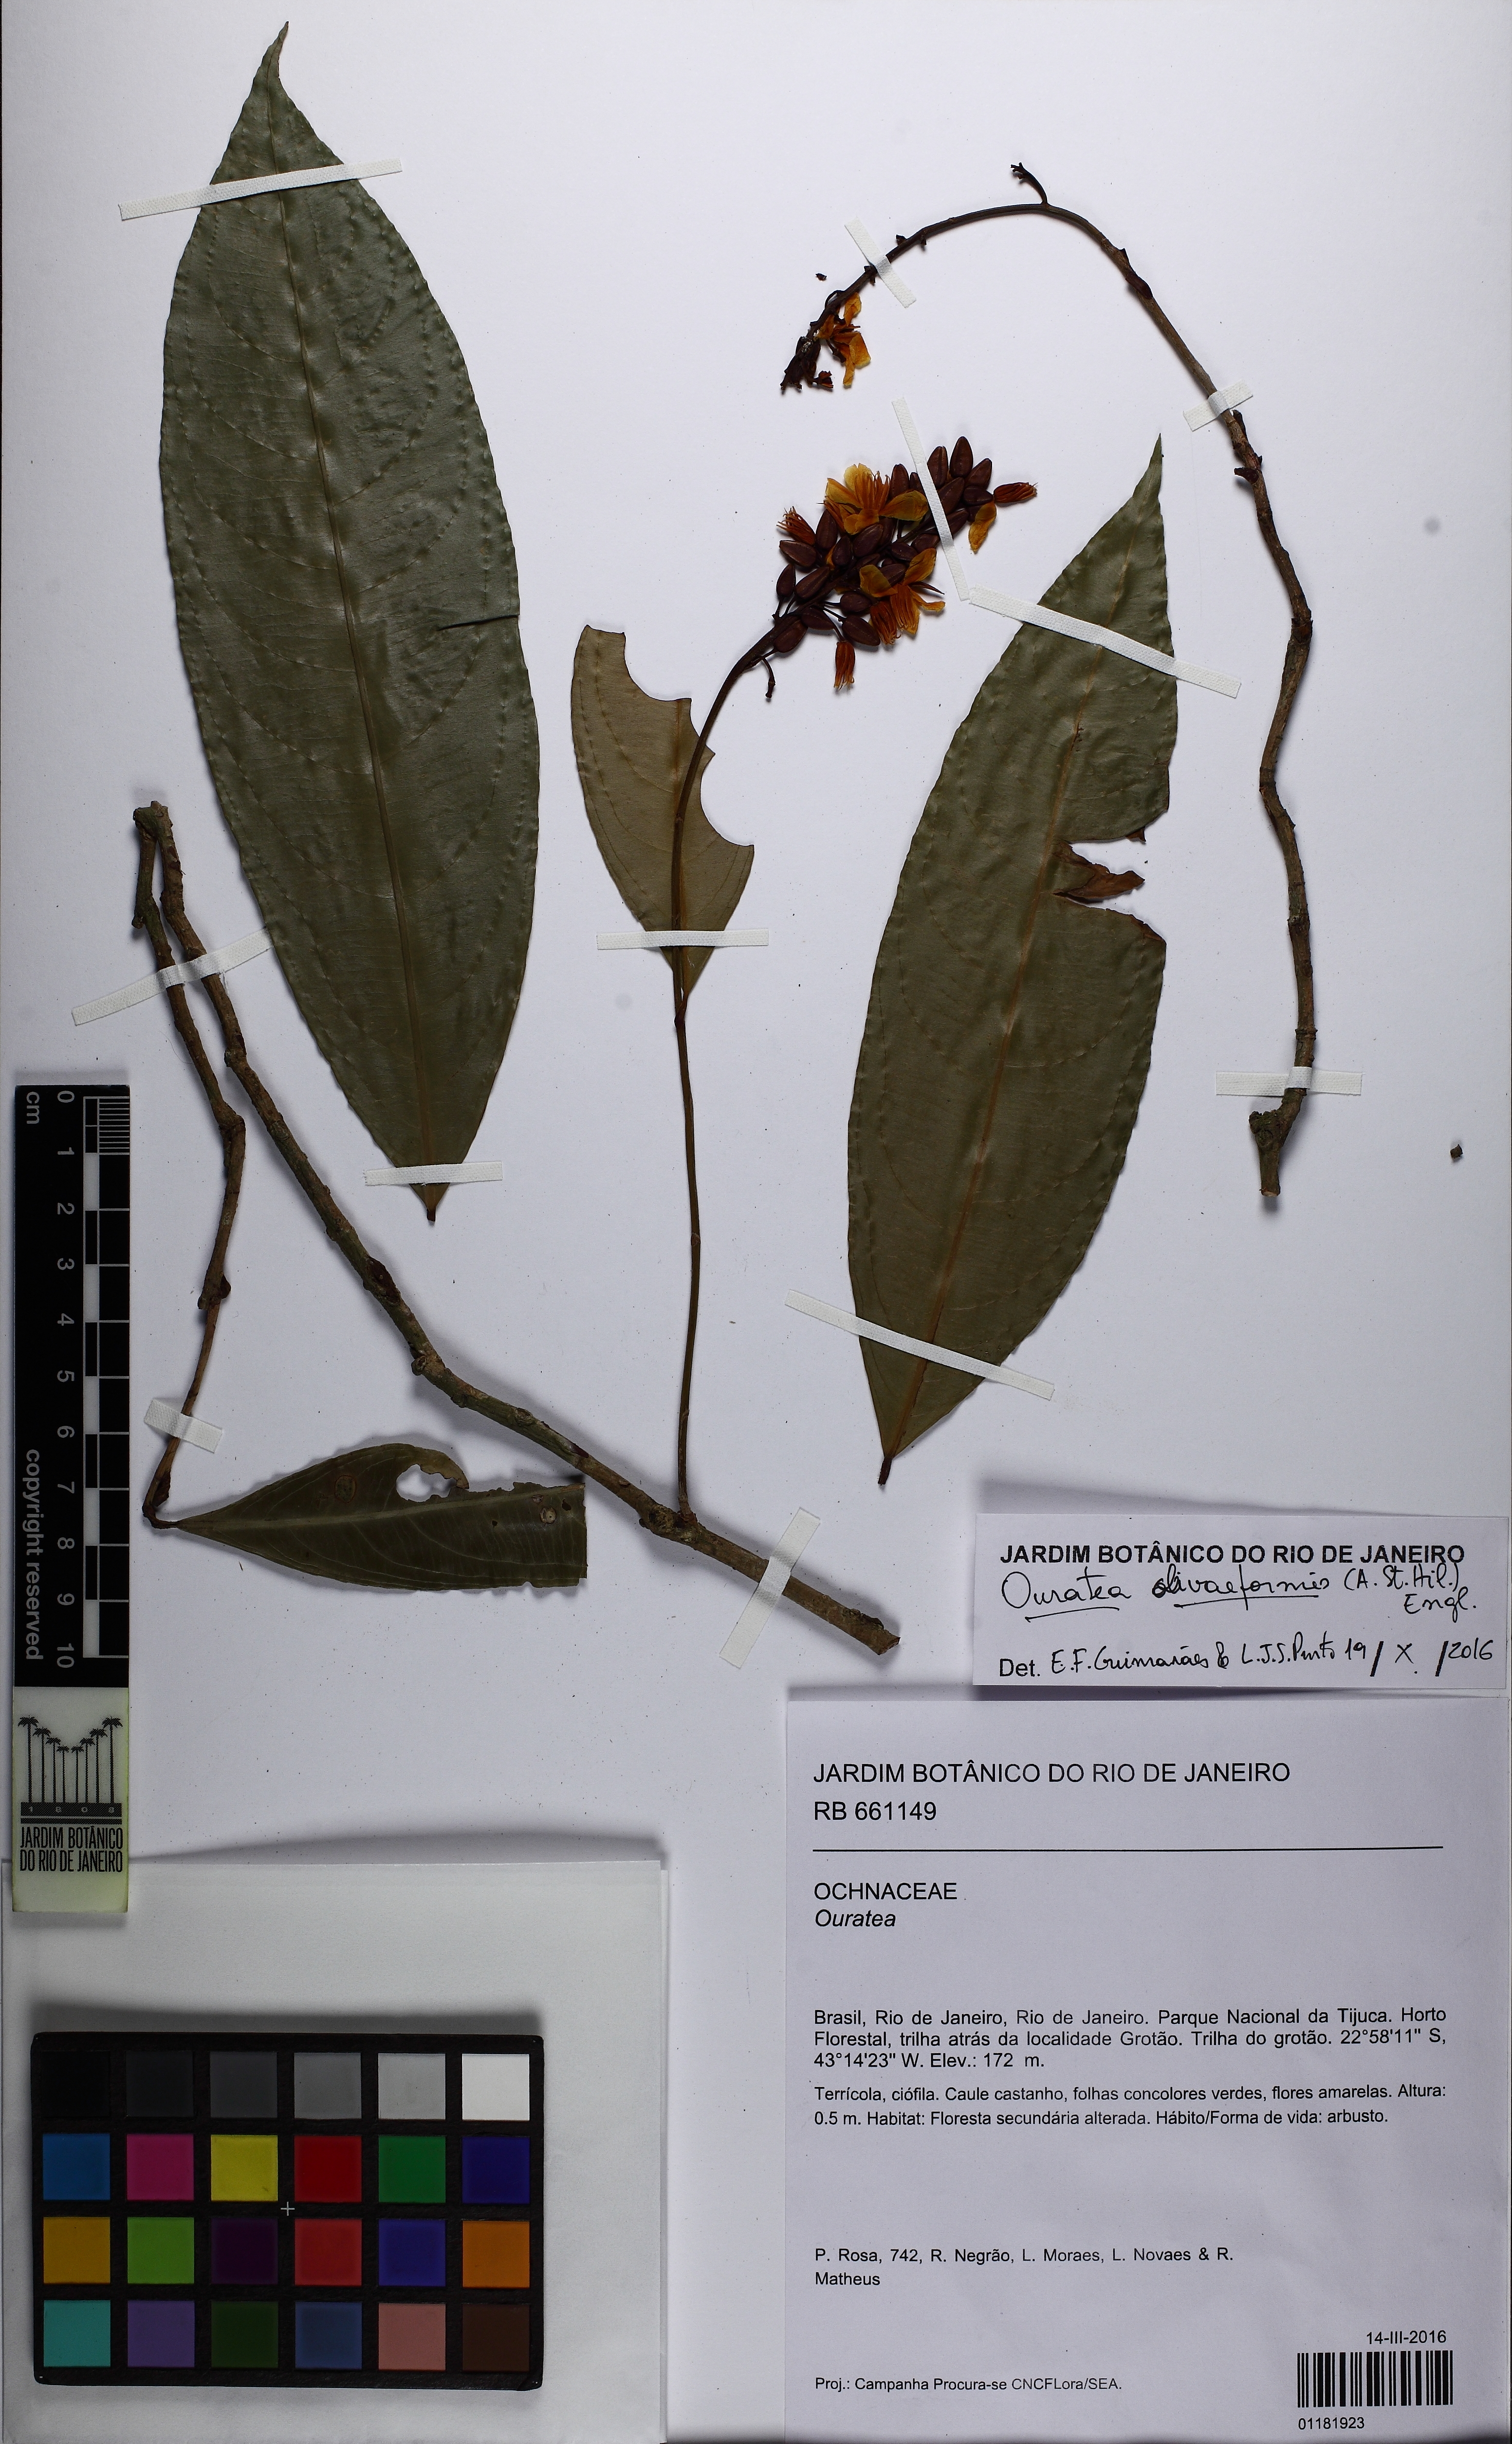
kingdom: Plantae
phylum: Tracheophyta
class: Magnoliopsida
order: Malpighiales
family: Ochnaceae
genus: Ouratea
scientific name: Ouratea oliviformis
